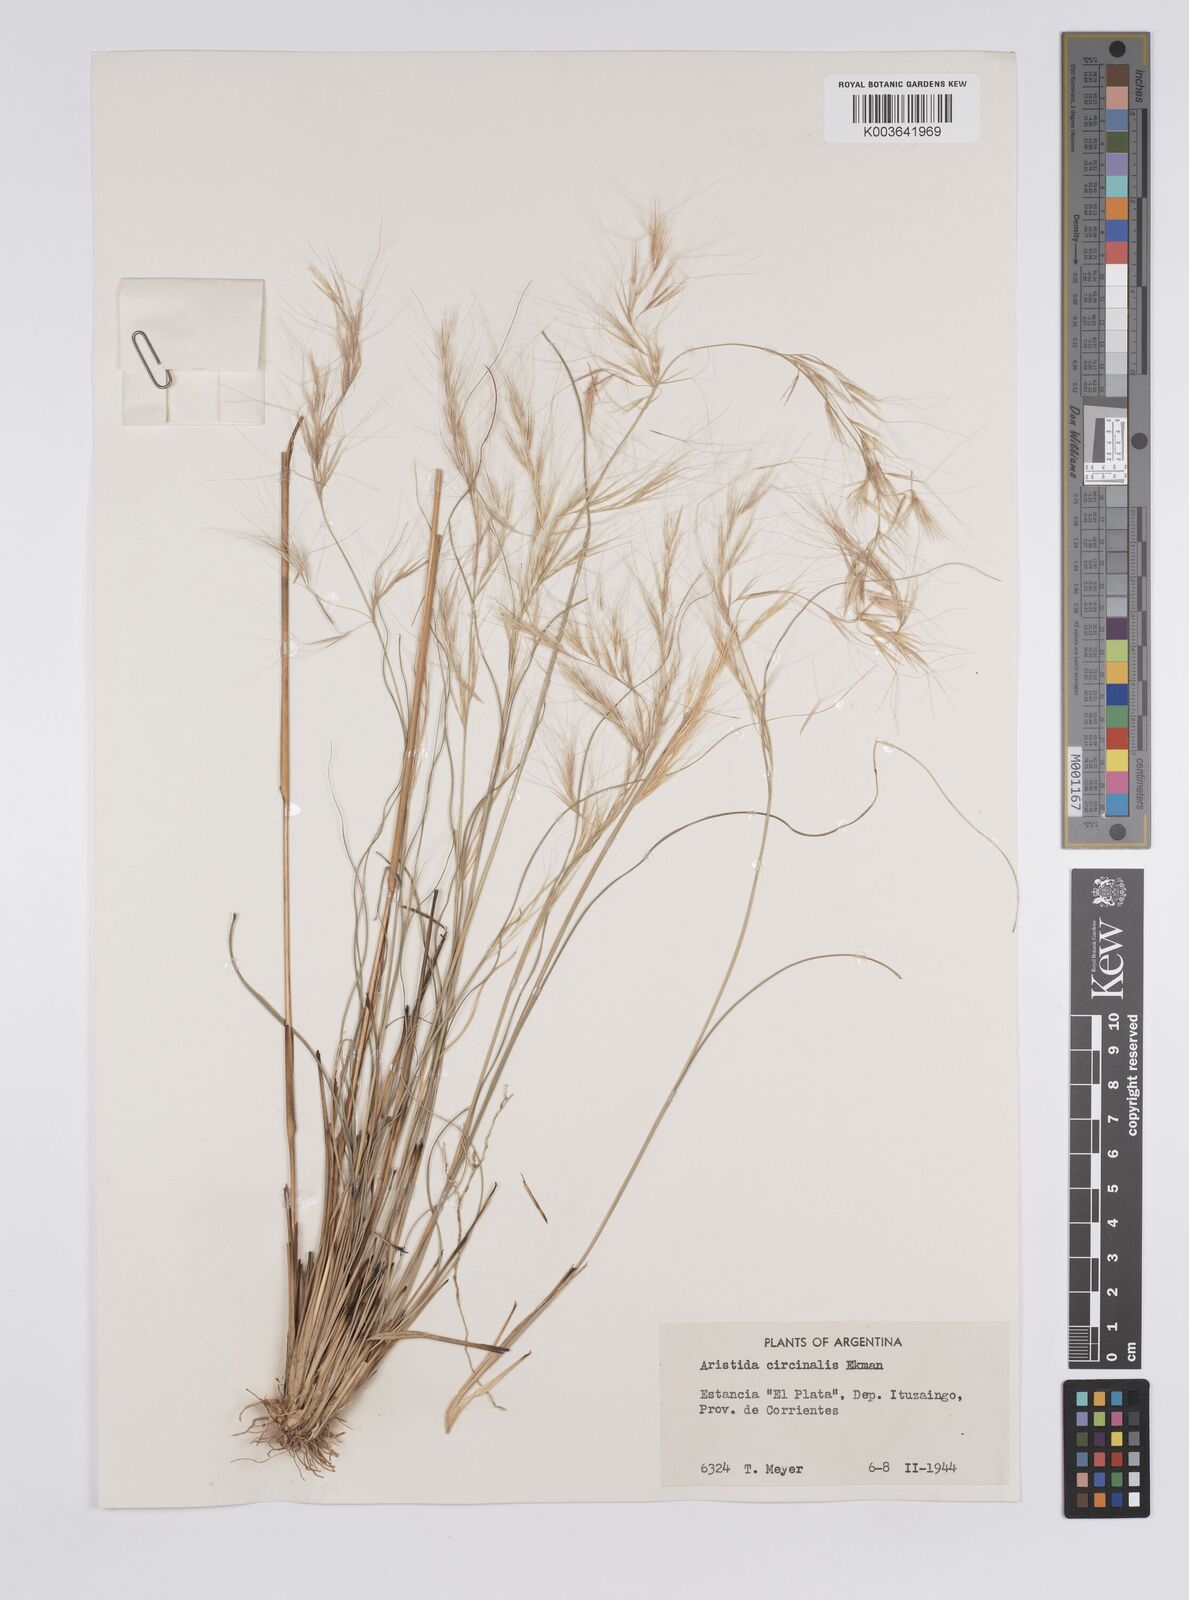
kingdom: Plantae
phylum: Tracheophyta
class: Liliopsida
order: Poales
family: Poaceae
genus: Aristida
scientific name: Aristida circinalis
